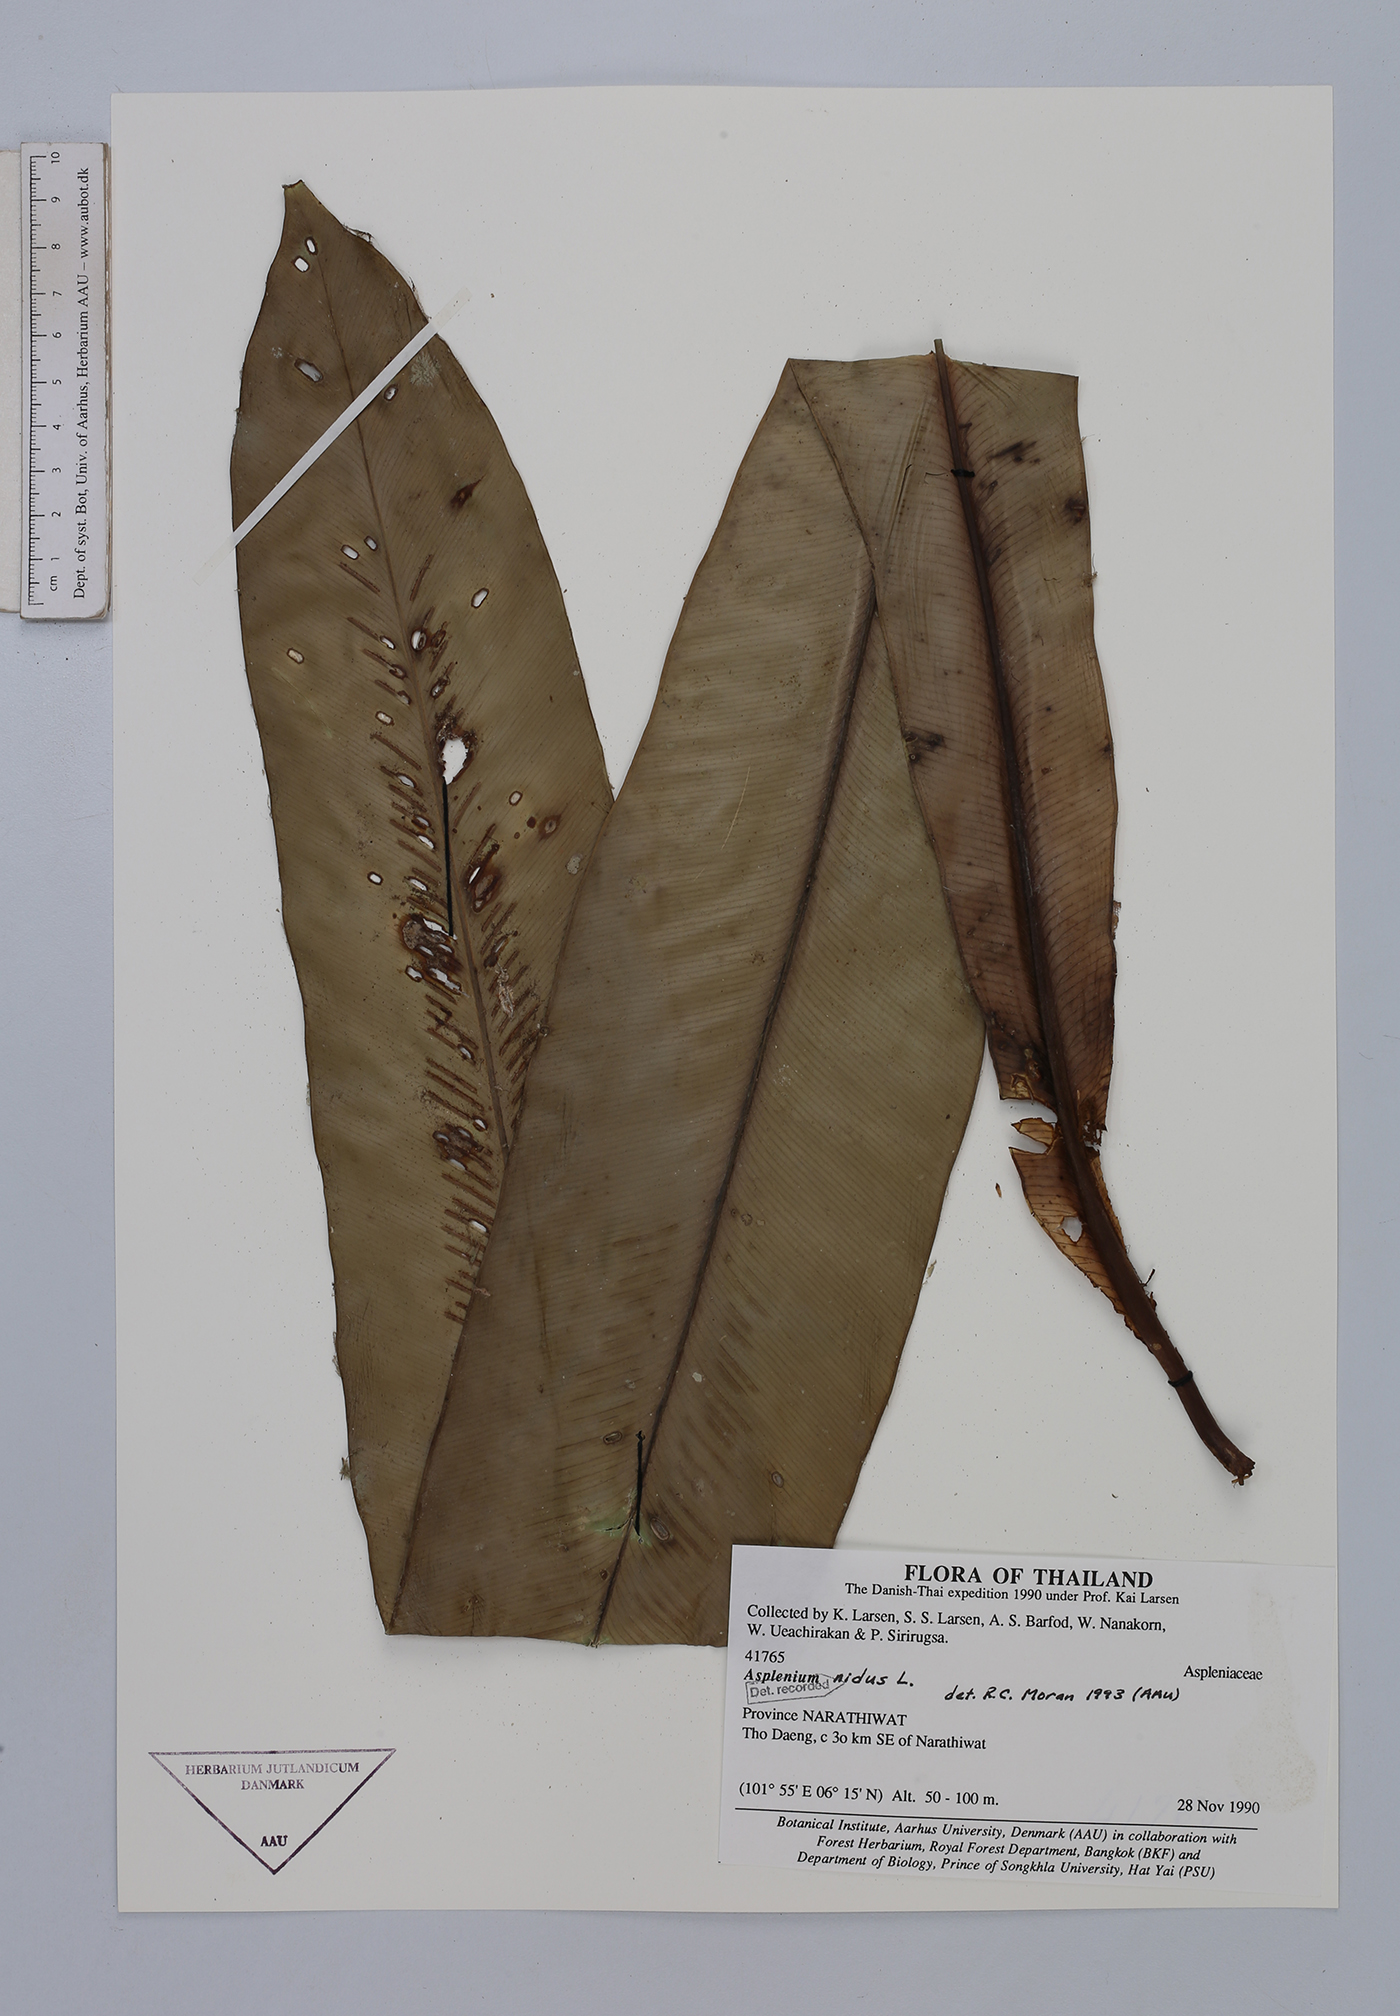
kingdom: Plantae
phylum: Tracheophyta
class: Polypodiopsida
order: Polypodiales
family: Aspleniaceae
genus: Asplenium
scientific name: Asplenium nidus
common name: Bird's-nest fern
